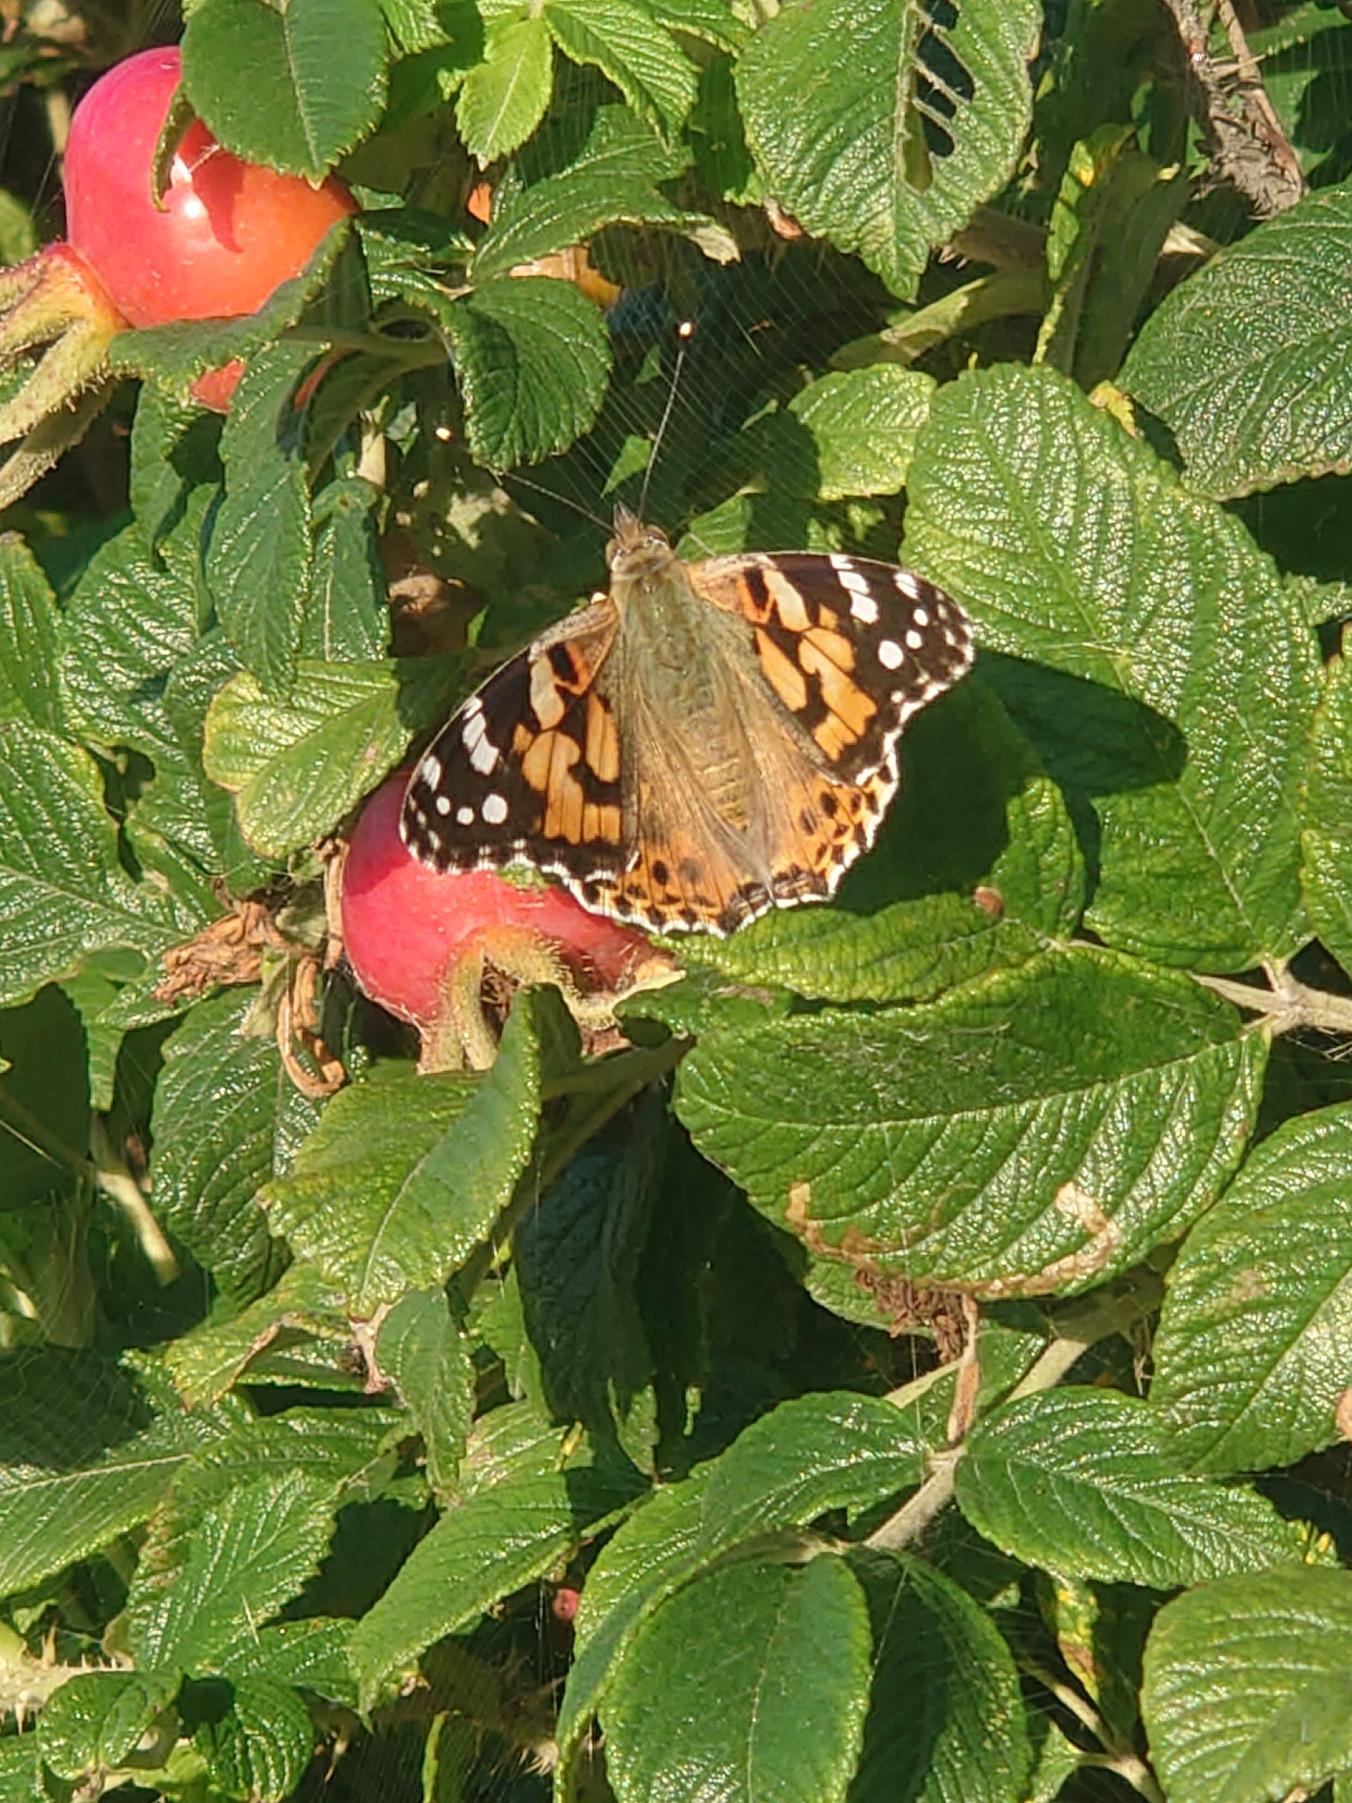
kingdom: Animalia
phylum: Arthropoda
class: Insecta
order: Lepidoptera
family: Nymphalidae
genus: Vanessa
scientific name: Vanessa cardui
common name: Tidselsommerfugl
